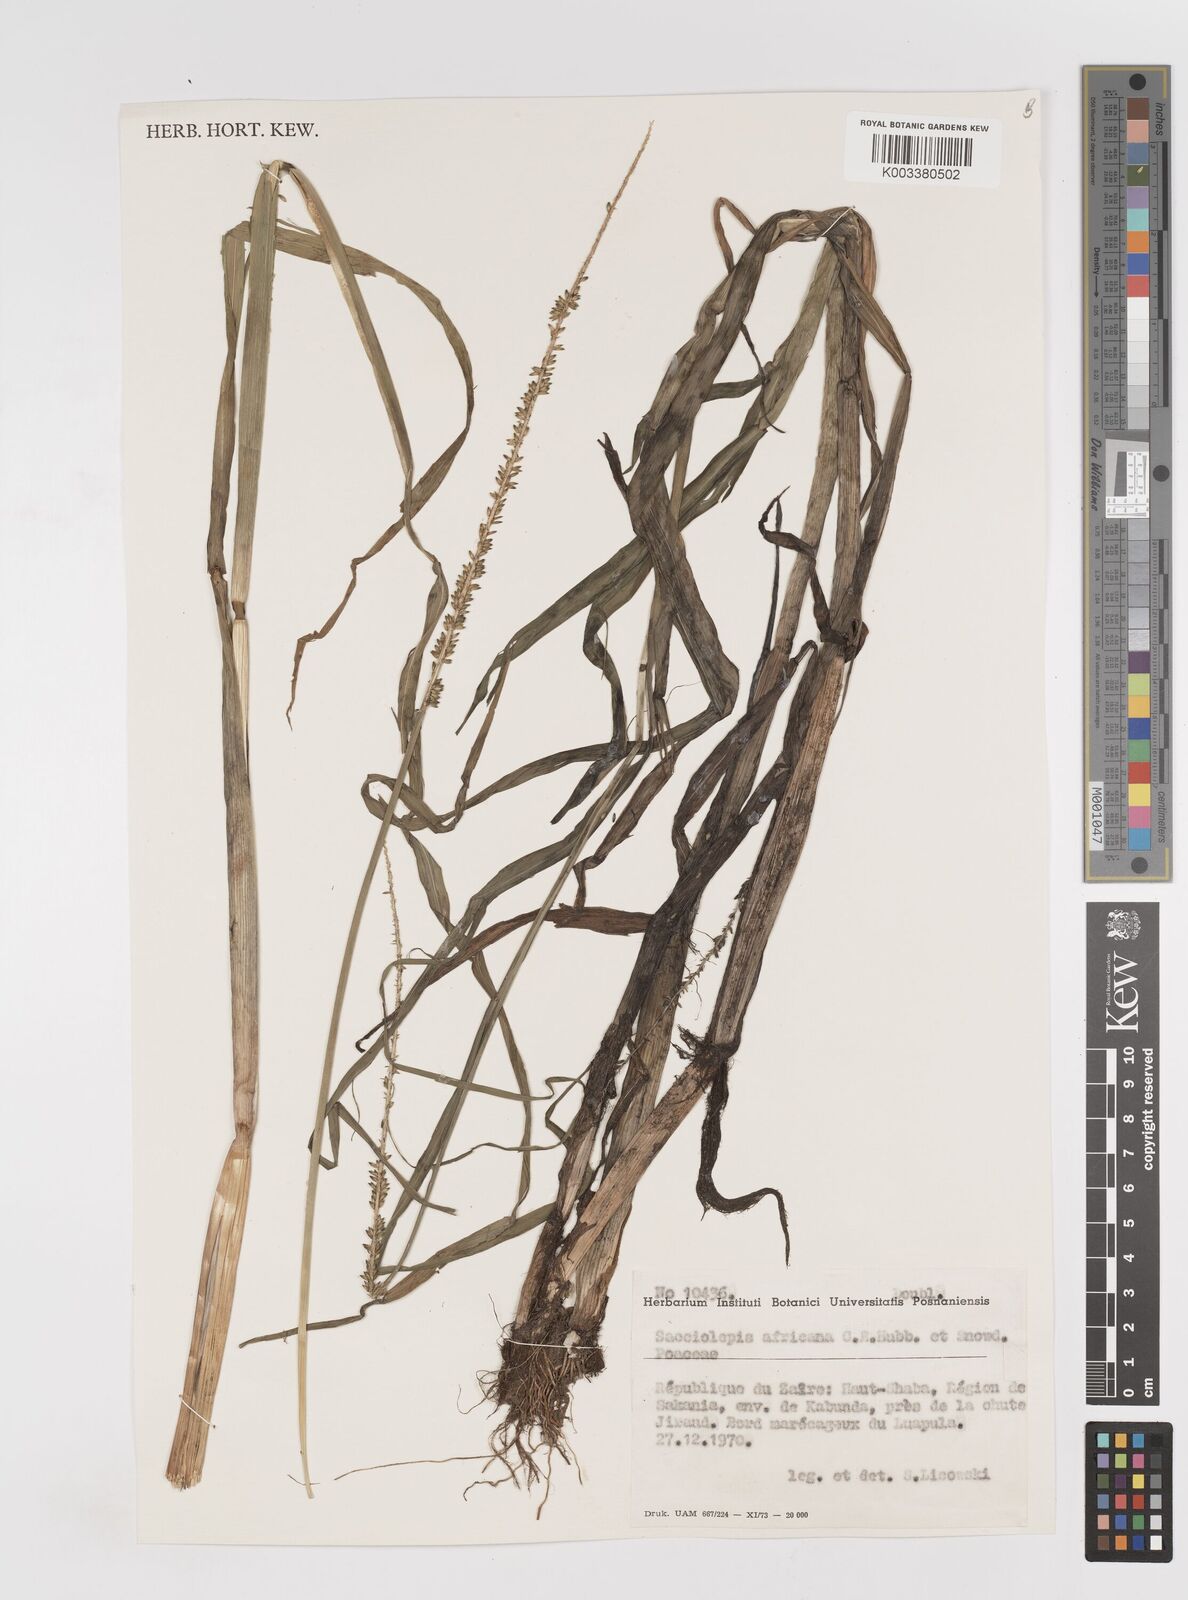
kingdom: Plantae
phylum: Tracheophyta
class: Liliopsida
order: Poales
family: Poaceae
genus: Sacciolepis
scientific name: Sacciolepis africana
